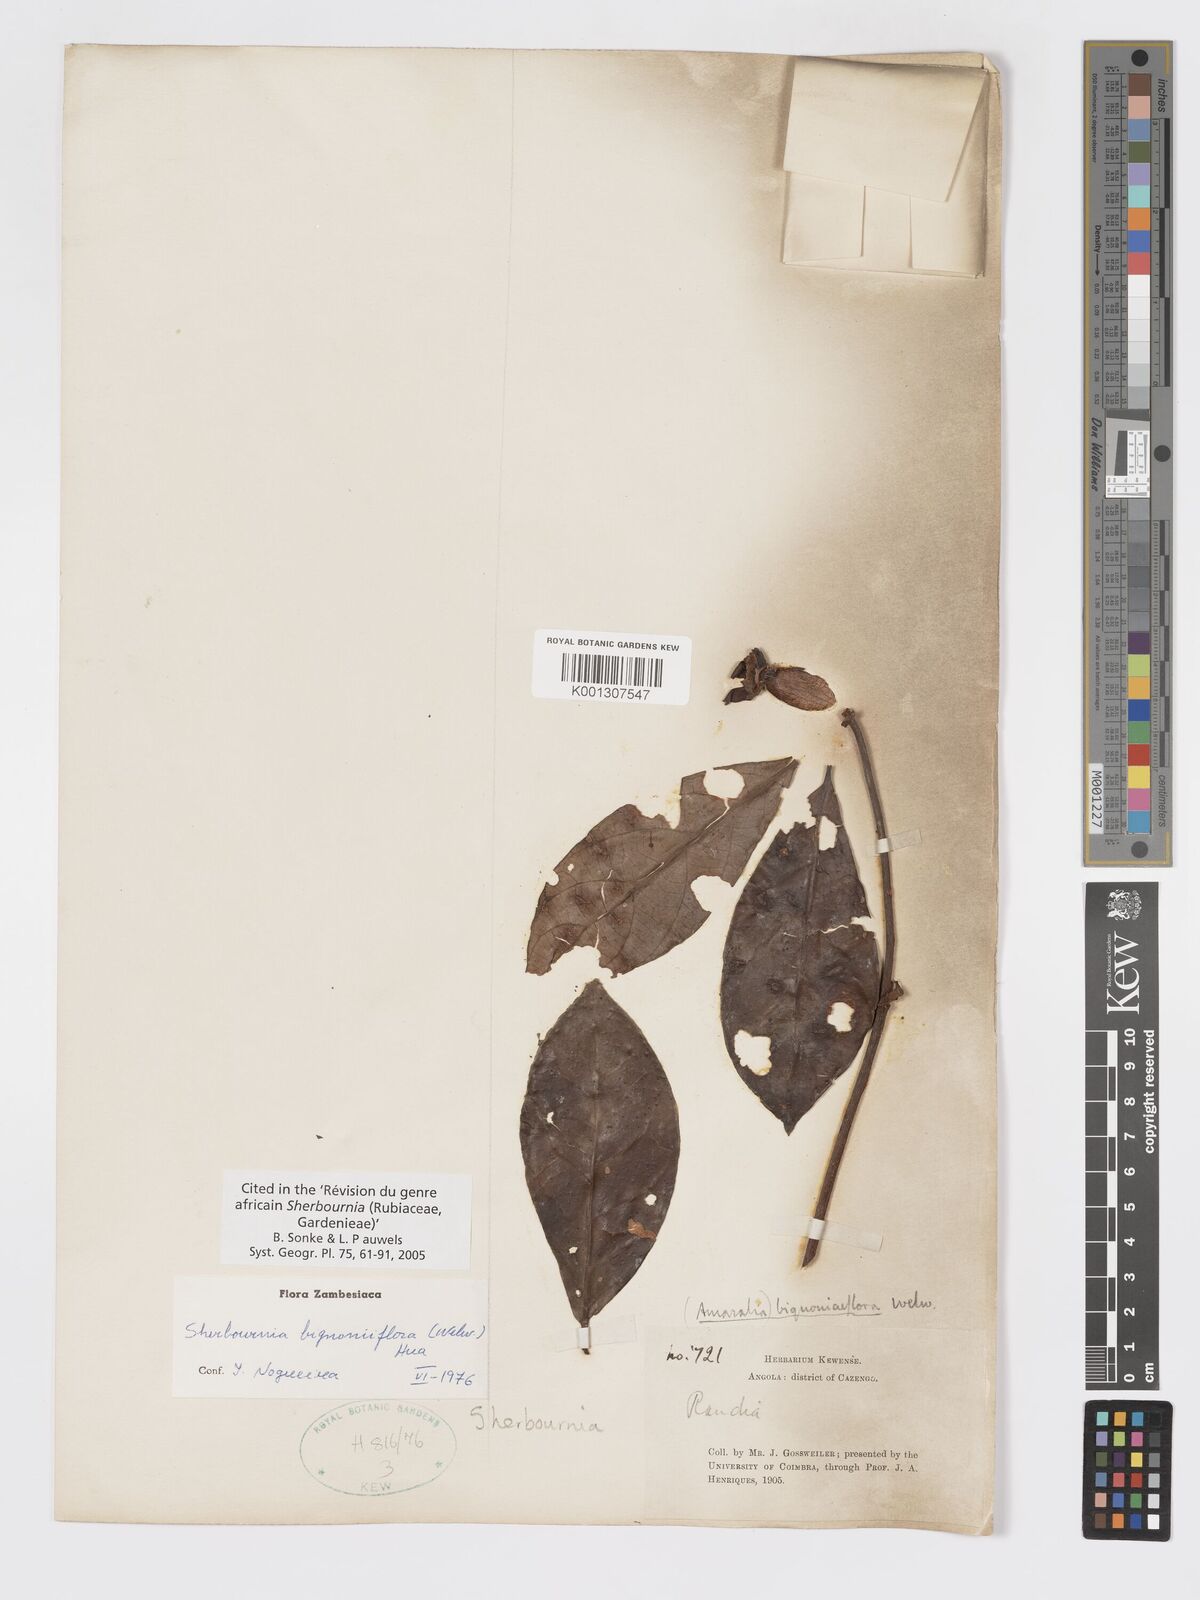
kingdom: Plantae
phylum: Tracheophyta
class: Magnoliopsida
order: Gentianales
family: Rubiaceae
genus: Sherbournia
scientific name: Sherbournia
